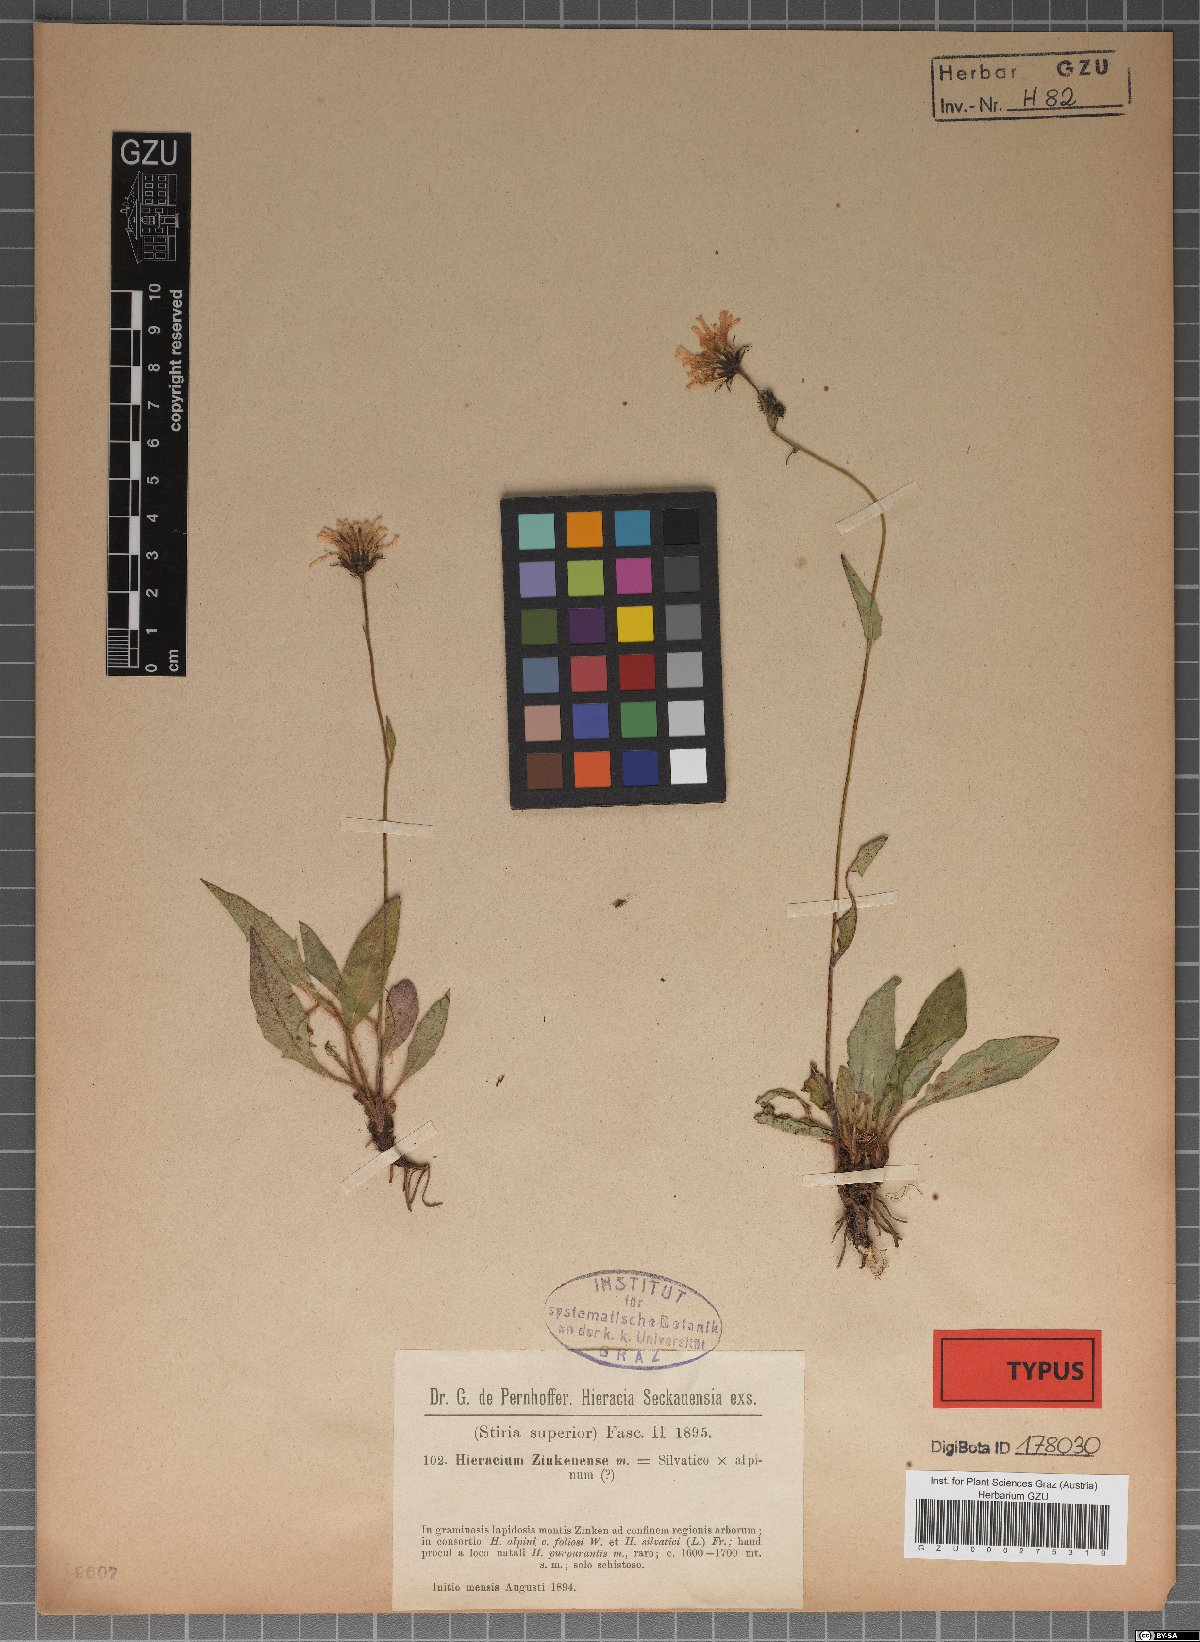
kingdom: Plantae
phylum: Tracheophyta
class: Magnoliopsida
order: Asterales
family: Asteraceae
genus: Hieracium
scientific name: Hieracium atratum
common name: Polar hawkweed
